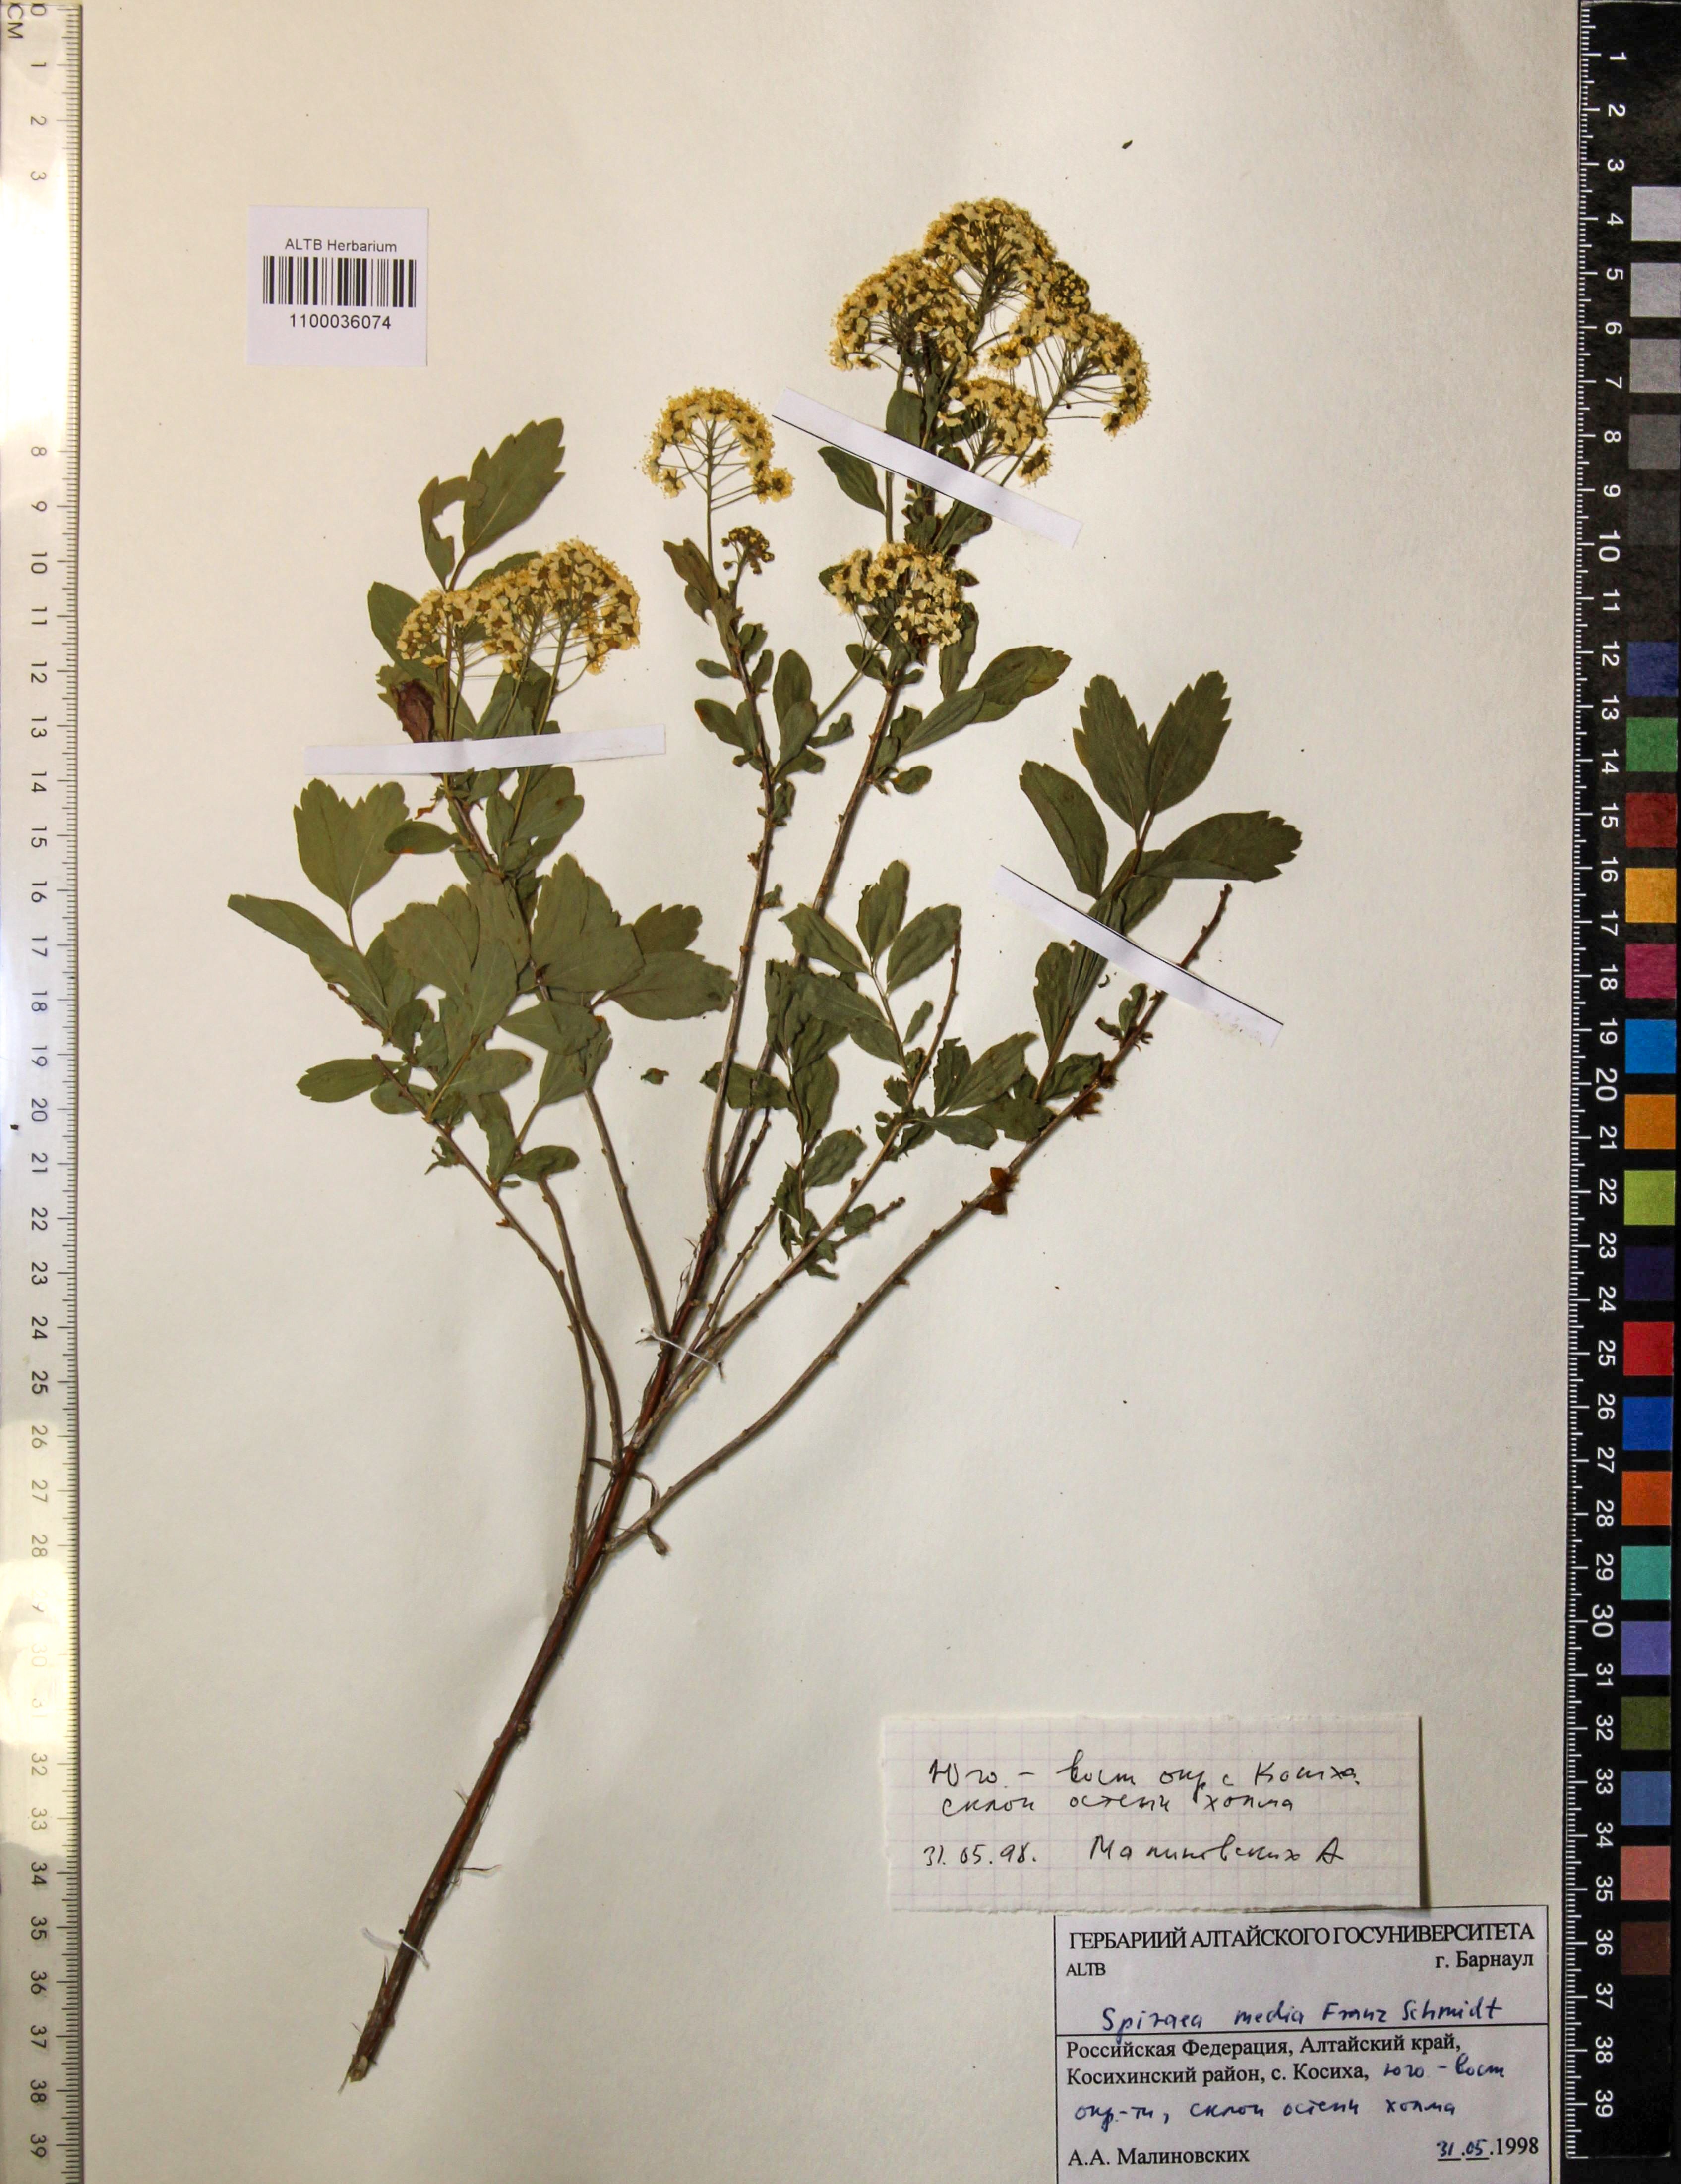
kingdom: Plantae
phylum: Tracheophyta
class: Magnoliopsida
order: Rosales
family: Rosaceae
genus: Spiraea
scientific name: Spiraea media
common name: Russian spiraea
